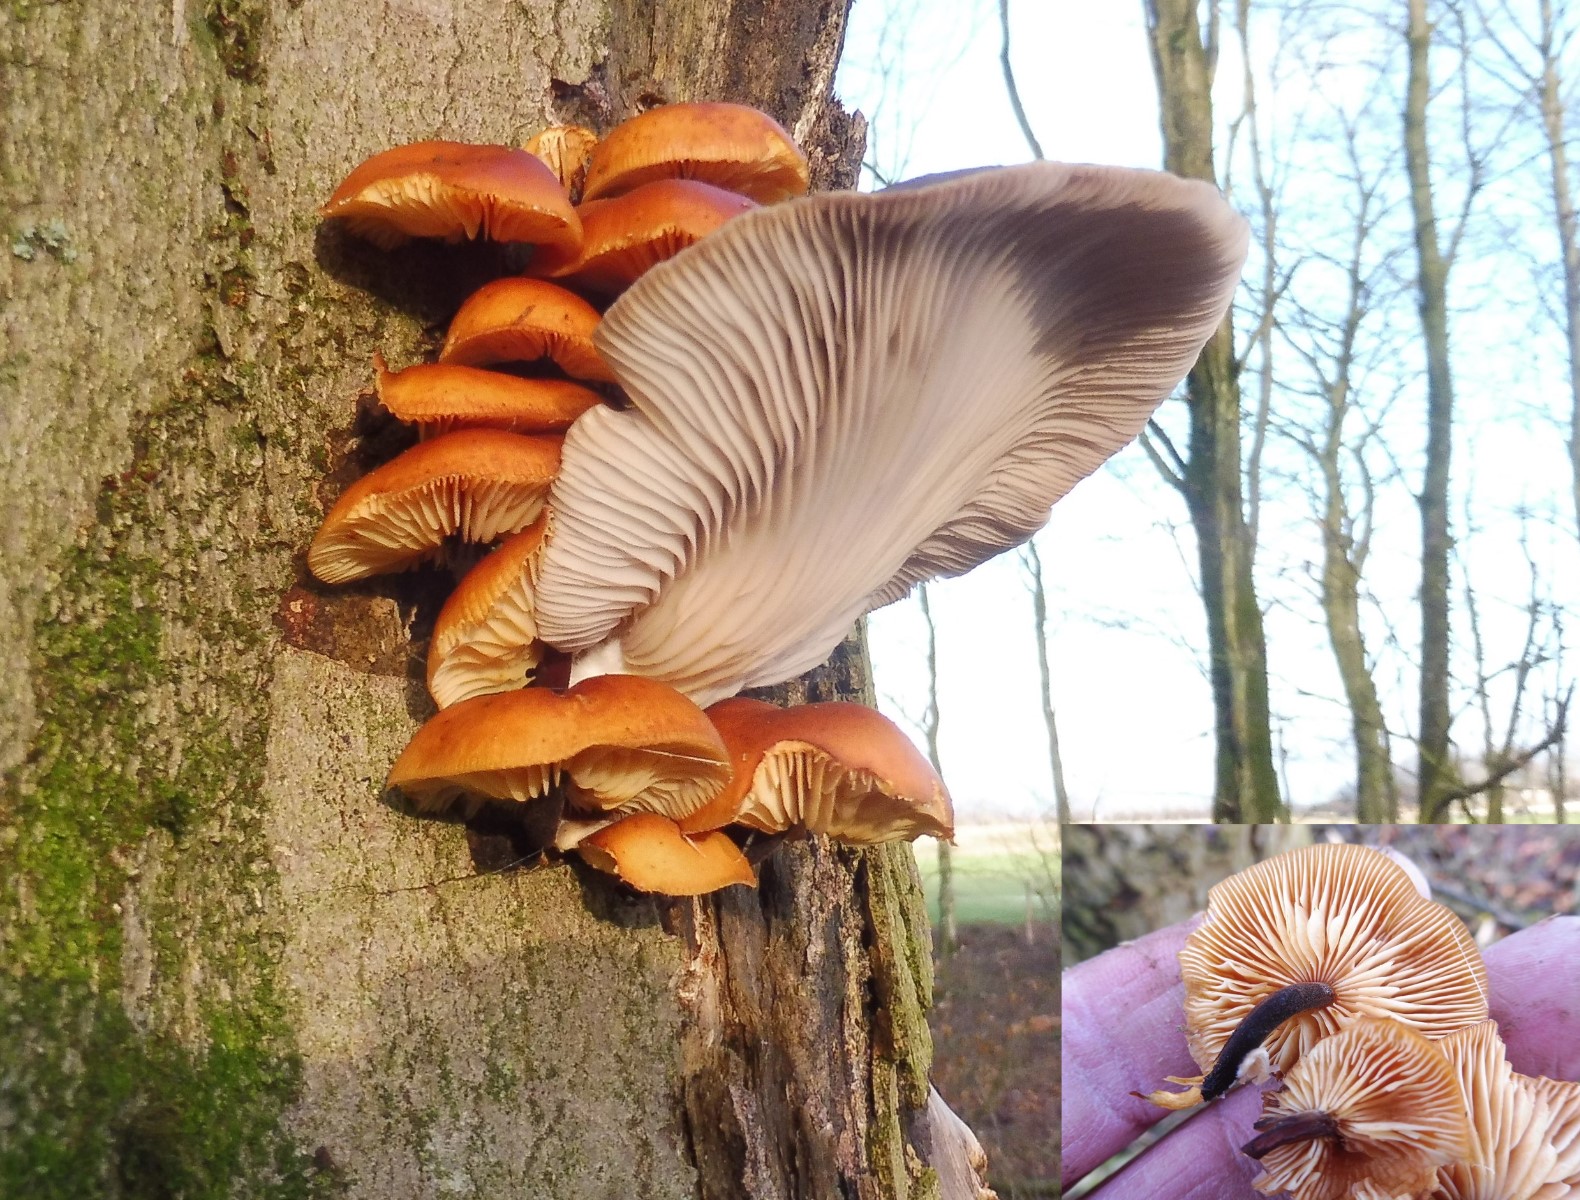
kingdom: Fungi
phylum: Basidiomycota
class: Agaricomycetes
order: Agaricales
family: Physalacriaceae
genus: Flammulina
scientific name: Flammulina velutipes
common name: gul fløjlsfod
